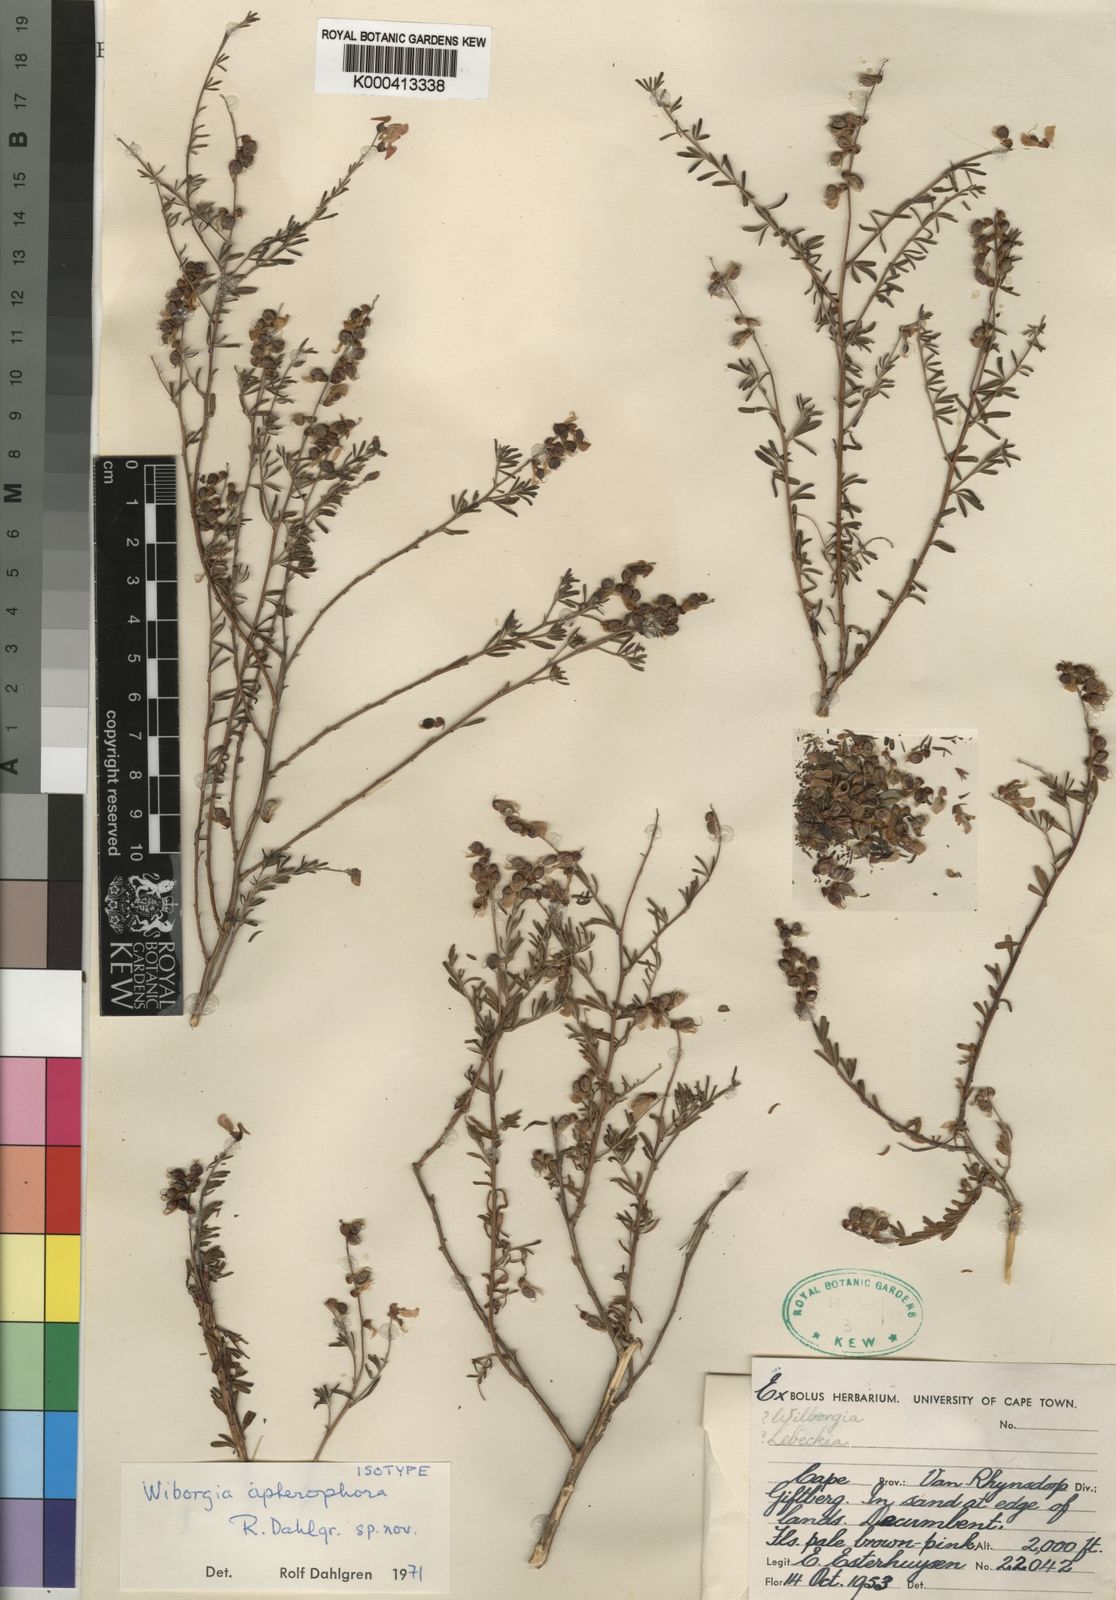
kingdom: Plantae
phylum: Tracheophyta
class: Magnoliopsida
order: Fabales
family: Fabaceae
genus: Wiborgiella
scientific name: Wiborgiella humilis
